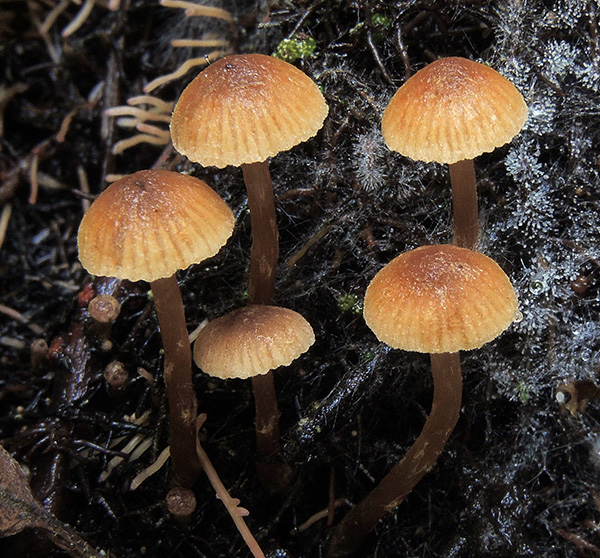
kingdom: Fungi
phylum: Basidiomycota
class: Agaricomycetes
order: Agaricales
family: Hymenogastraceae
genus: Naucoria
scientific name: Naucoria striatula
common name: stribet knaphat
